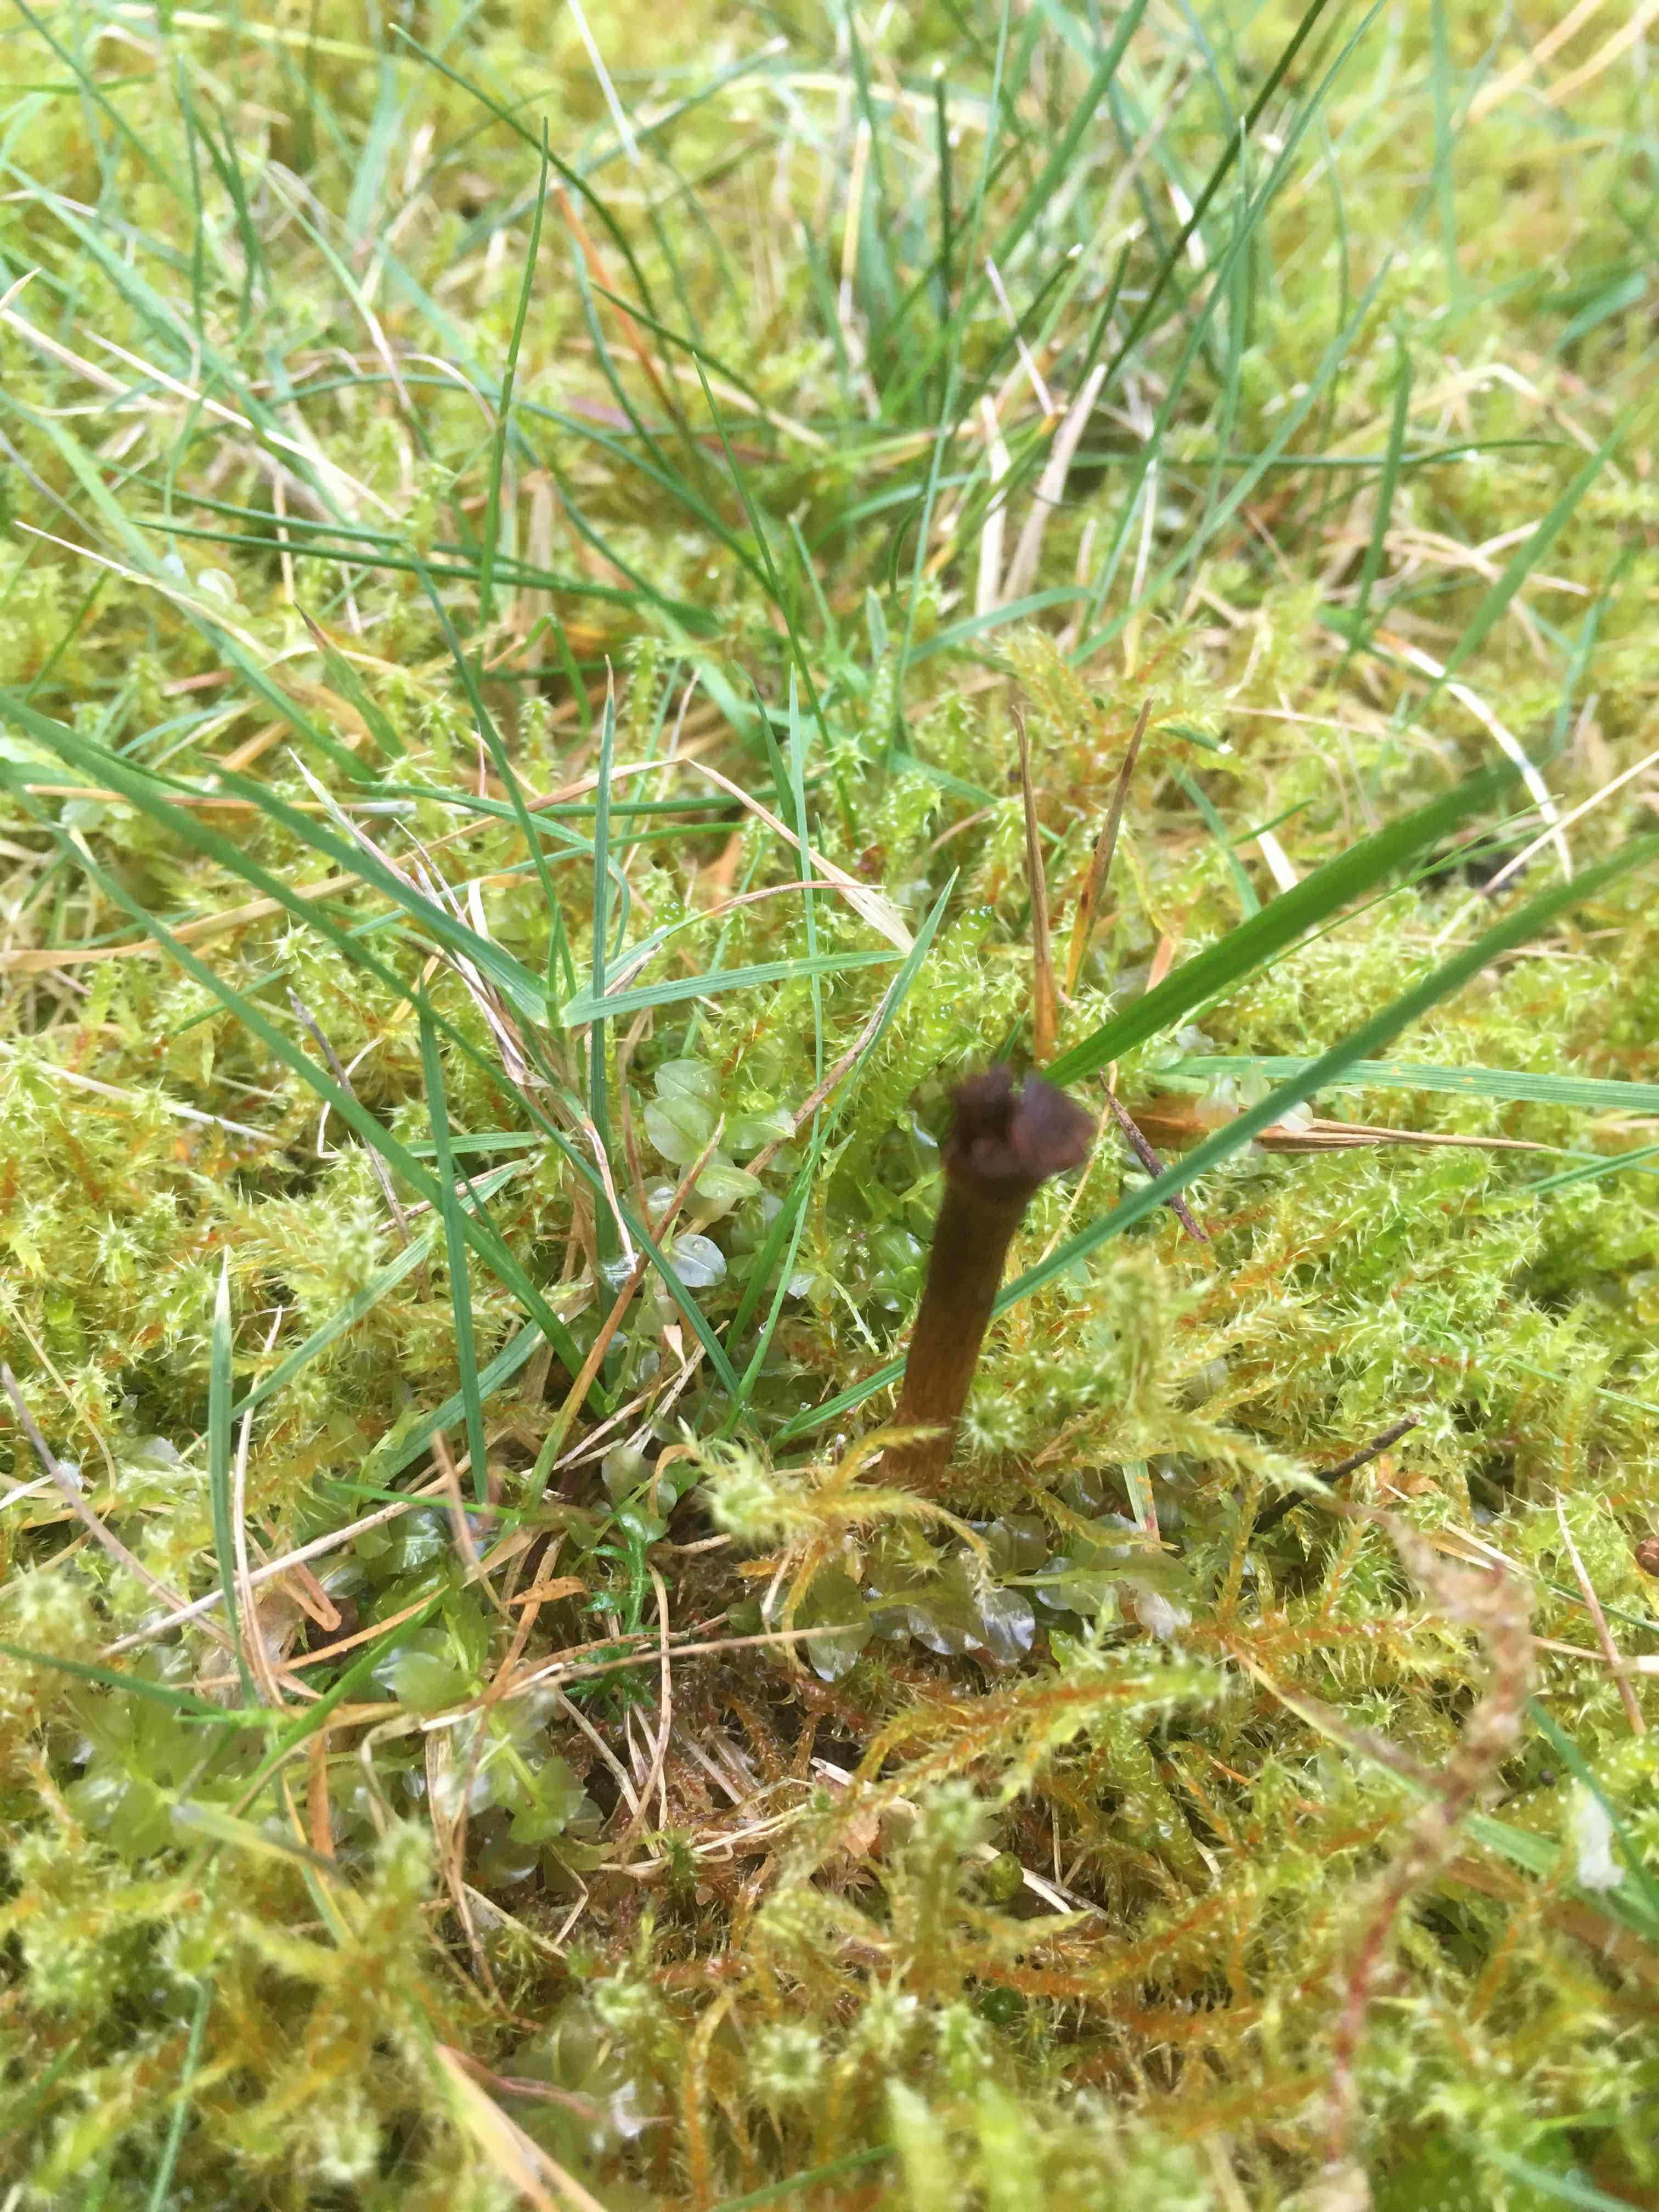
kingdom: Fungi
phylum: Ascomycota
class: Geoglossomycetes
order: Geoglossales
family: Geoglossaceae
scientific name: Geoglossaceae
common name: jordtungefamilien
